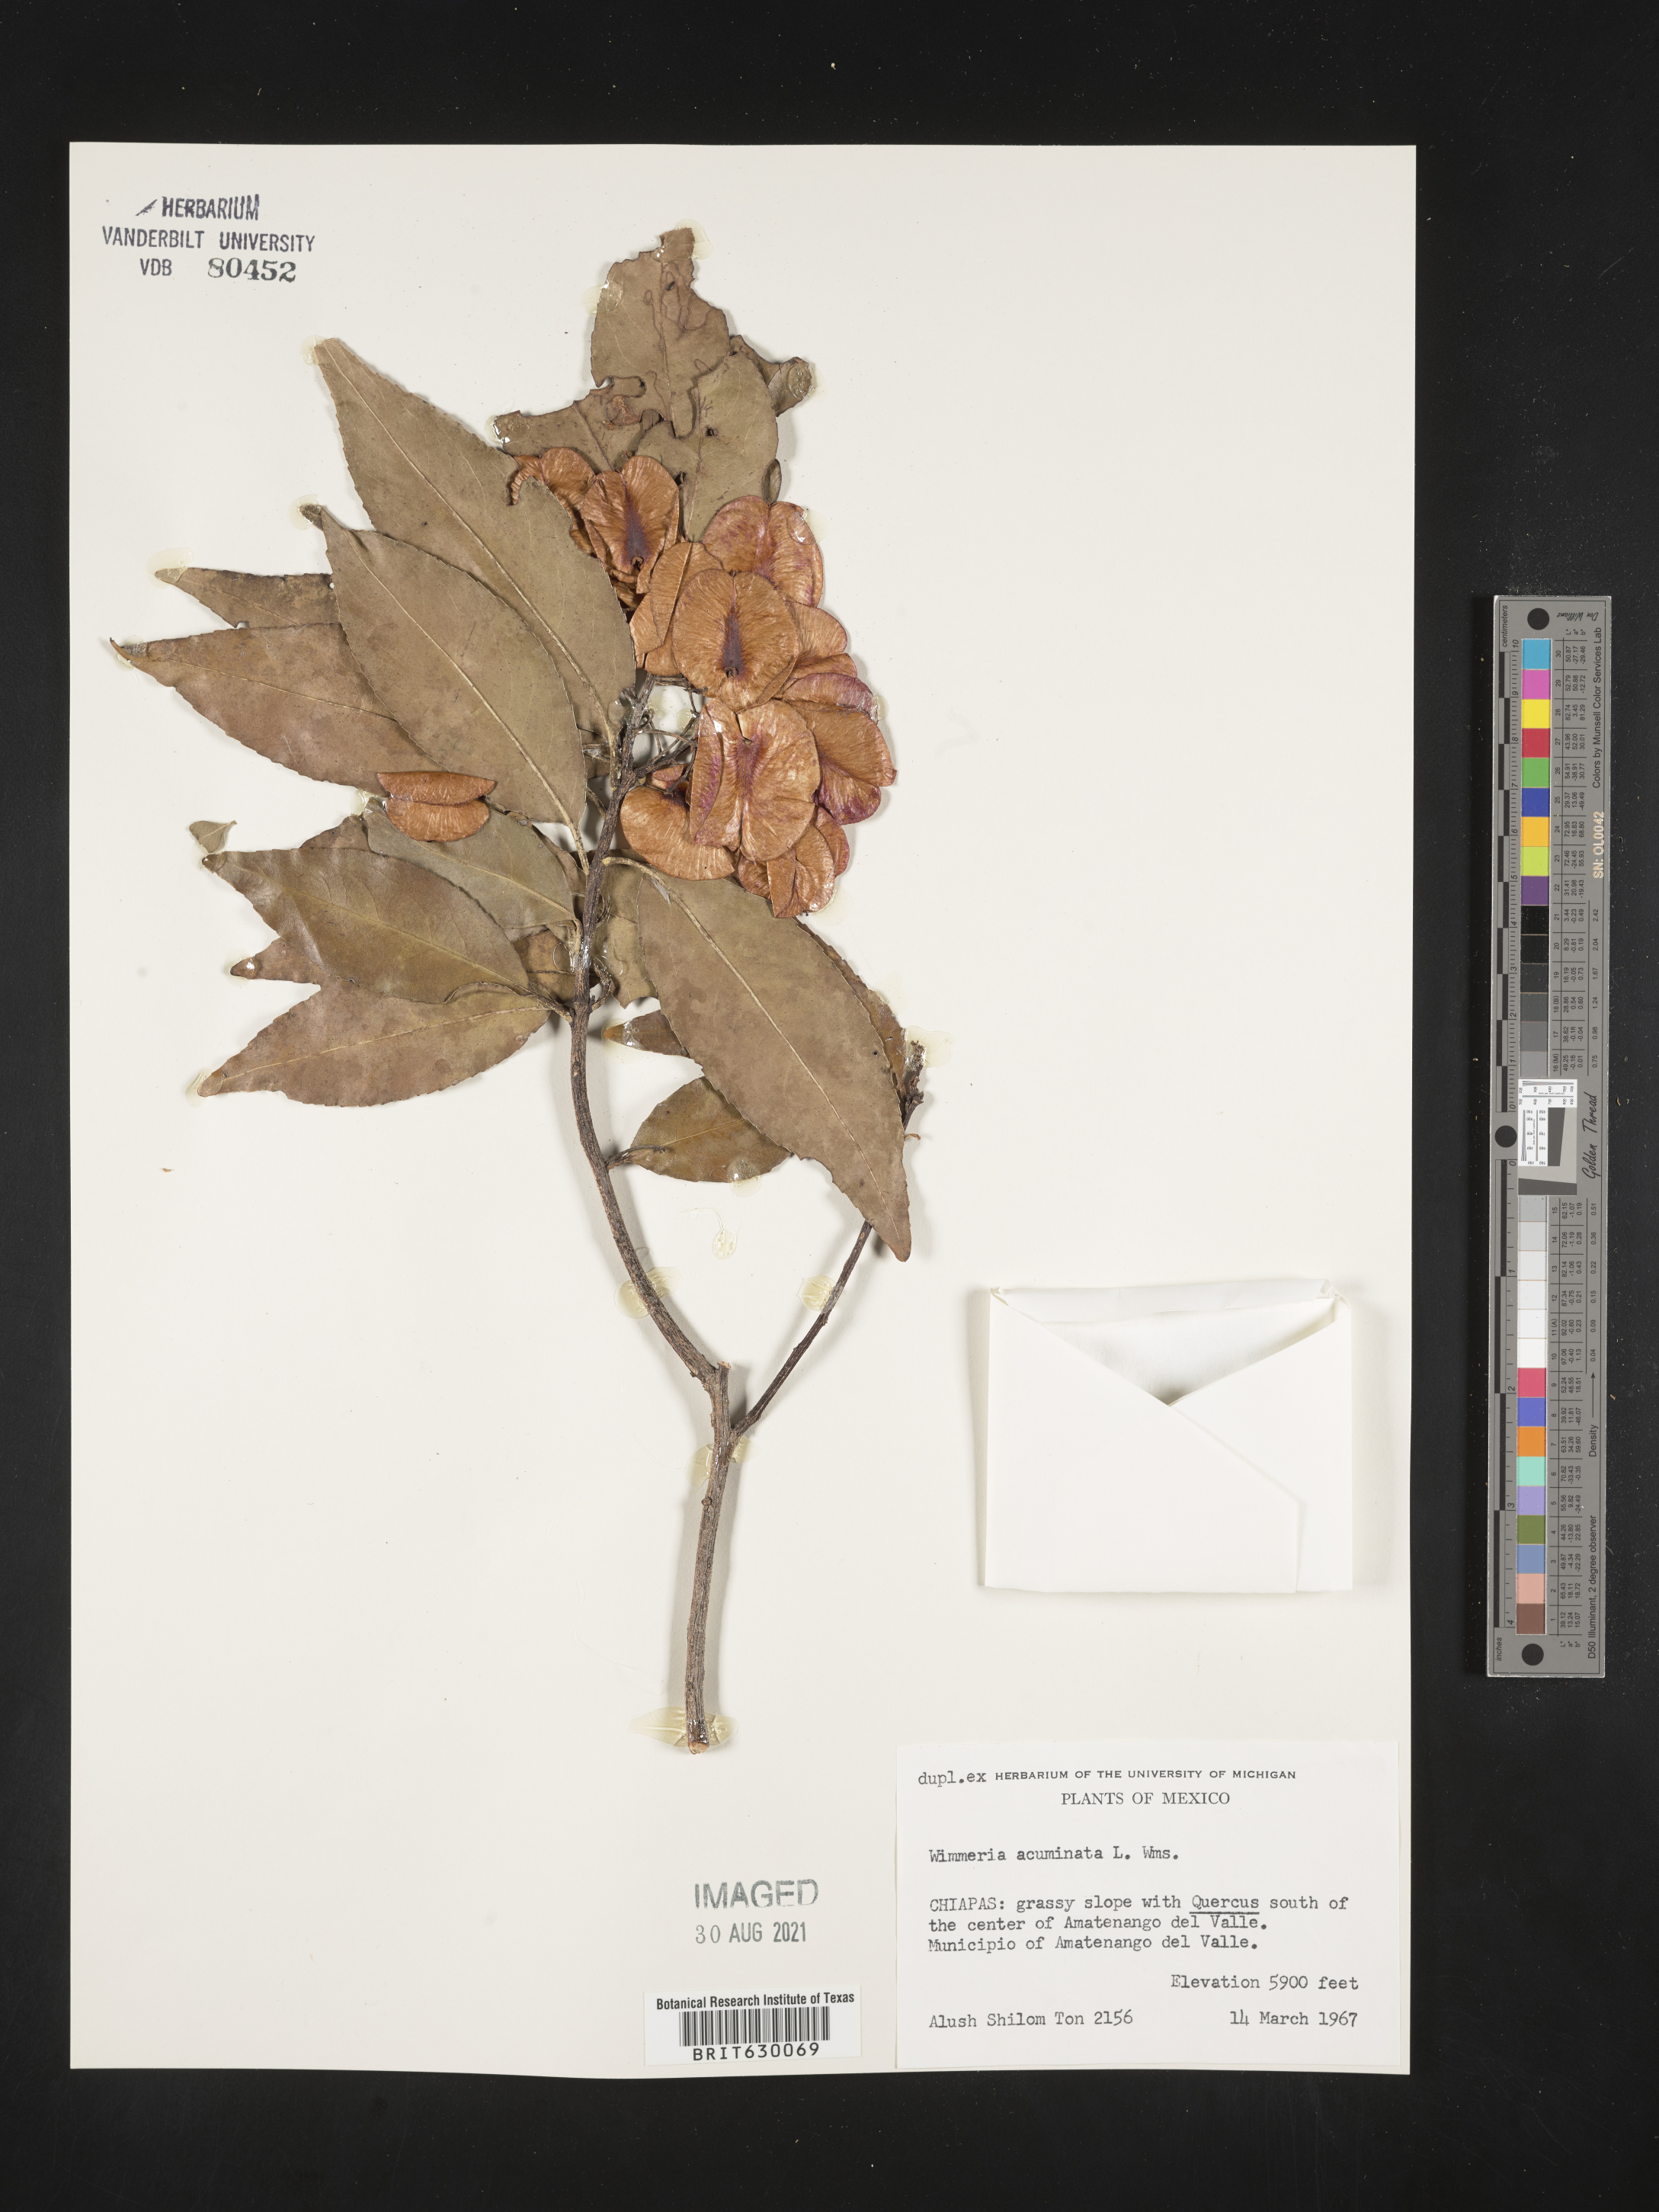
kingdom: Plantae
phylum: Tracheophyta
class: Magnoliopsida
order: Celastrales
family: Celastraceae
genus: Wimmeria
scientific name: Wimmeria
